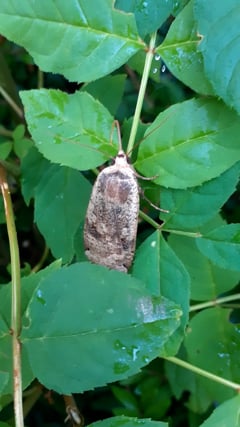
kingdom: Animalia
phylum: Arthropoda
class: Insecta
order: Lepidoptera
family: Noctuidae
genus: Noctua
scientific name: Noctua pronuba
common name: Large yellow underwing
